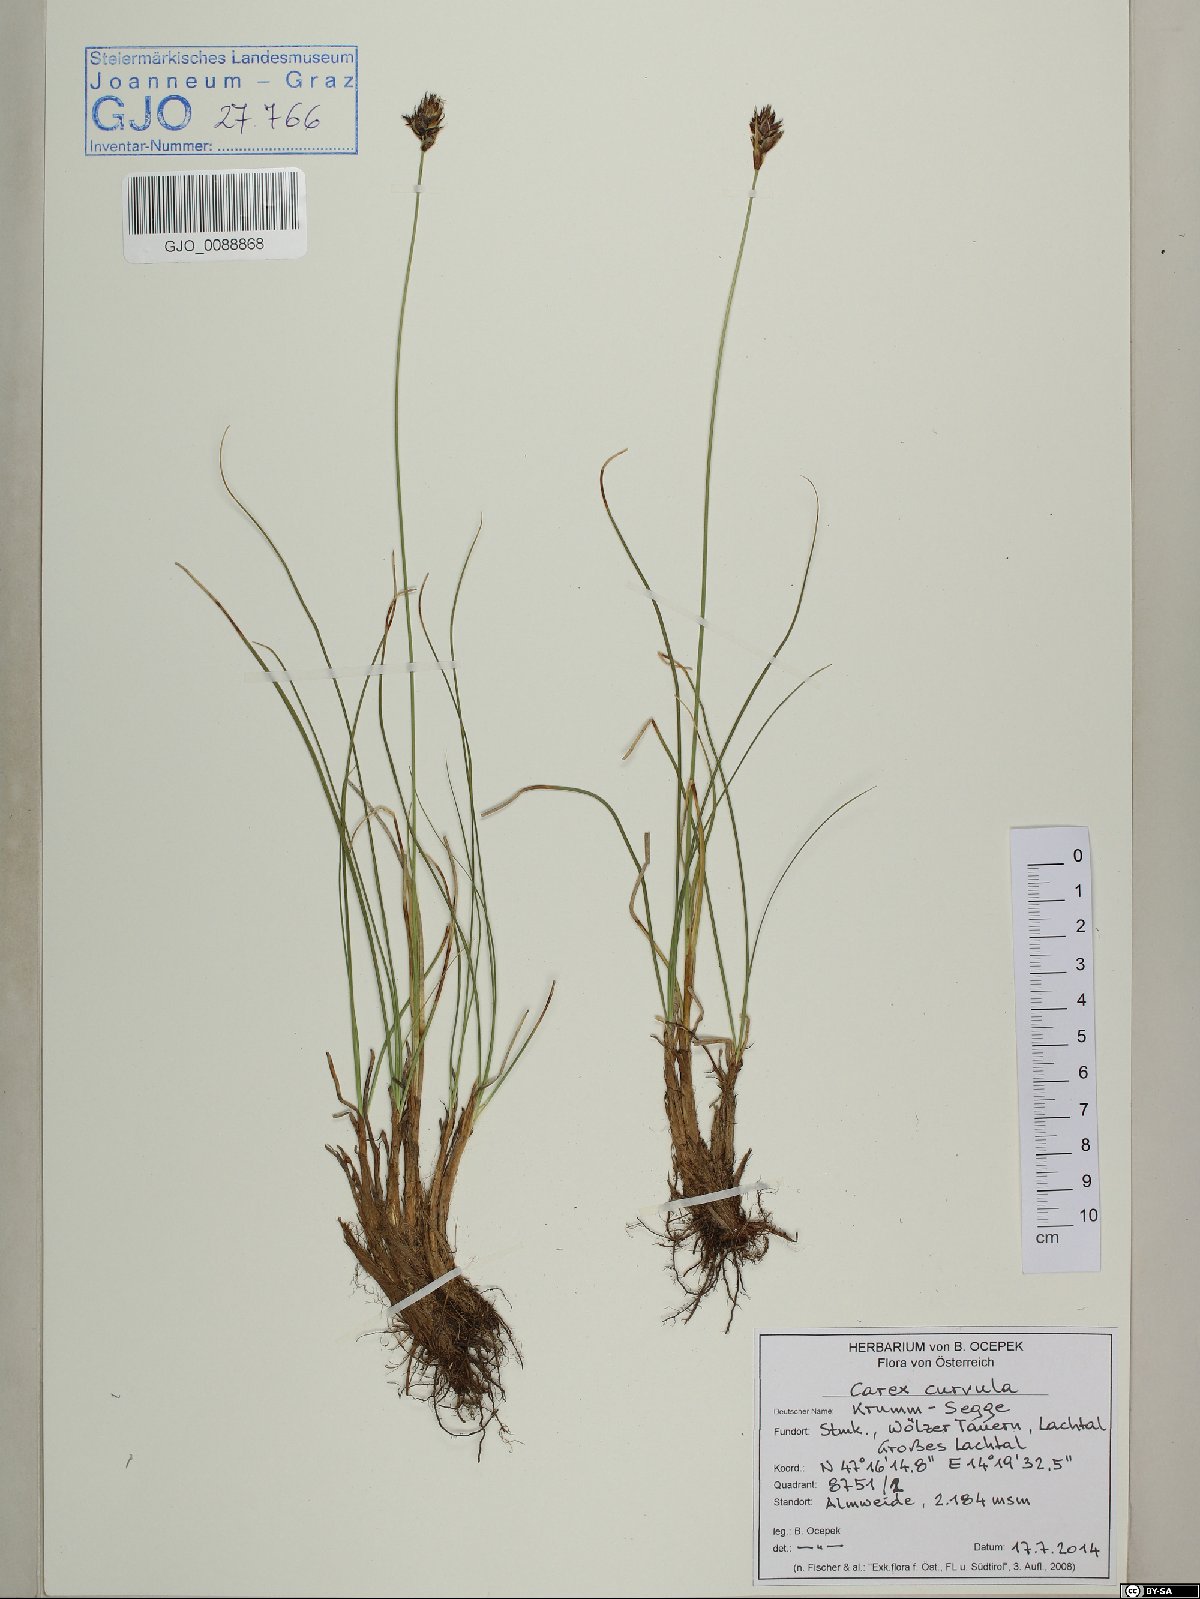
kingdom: Plantae
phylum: Tracheophyta
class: Liliopsida
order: Poales
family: Cyperaceae
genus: Carex
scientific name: Carex curvula
